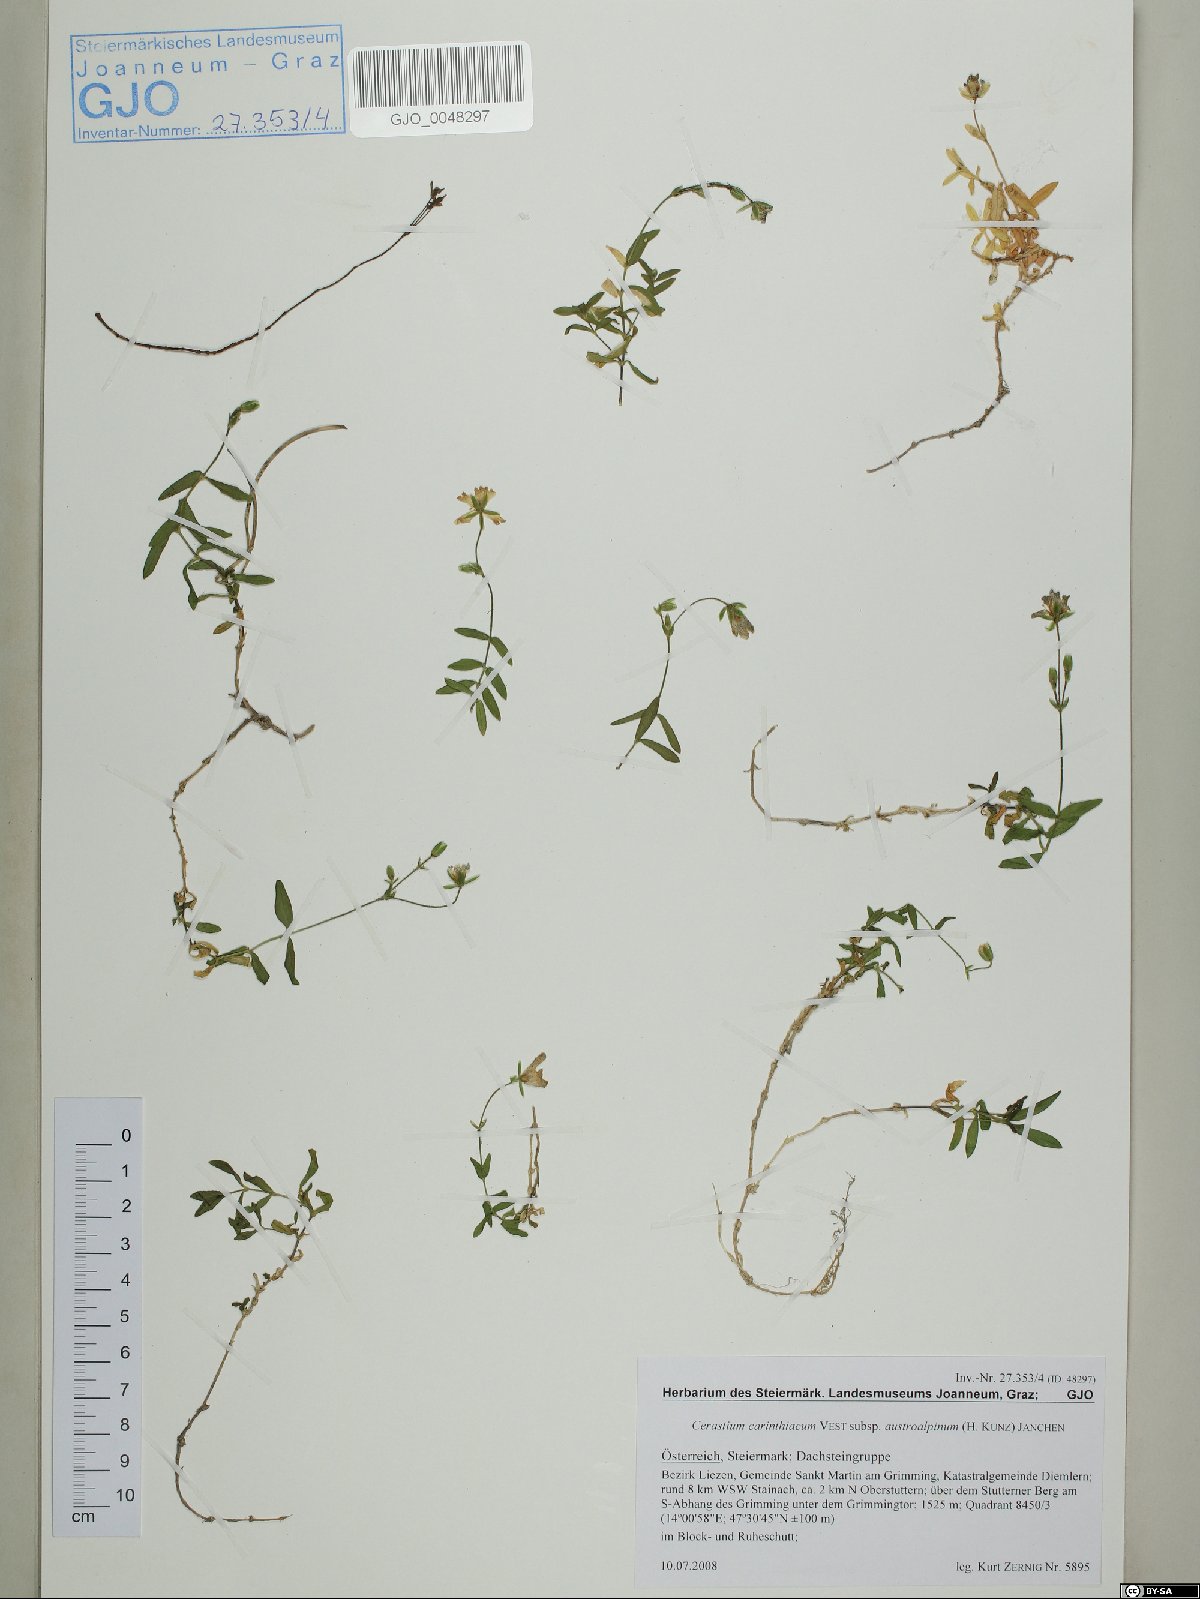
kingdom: Plantae
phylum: Tracheophyta
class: Magnoliopsida
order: Caryophyllales
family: Caryophyllaceae
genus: Cerastium
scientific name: Cerastium carinthiacum
